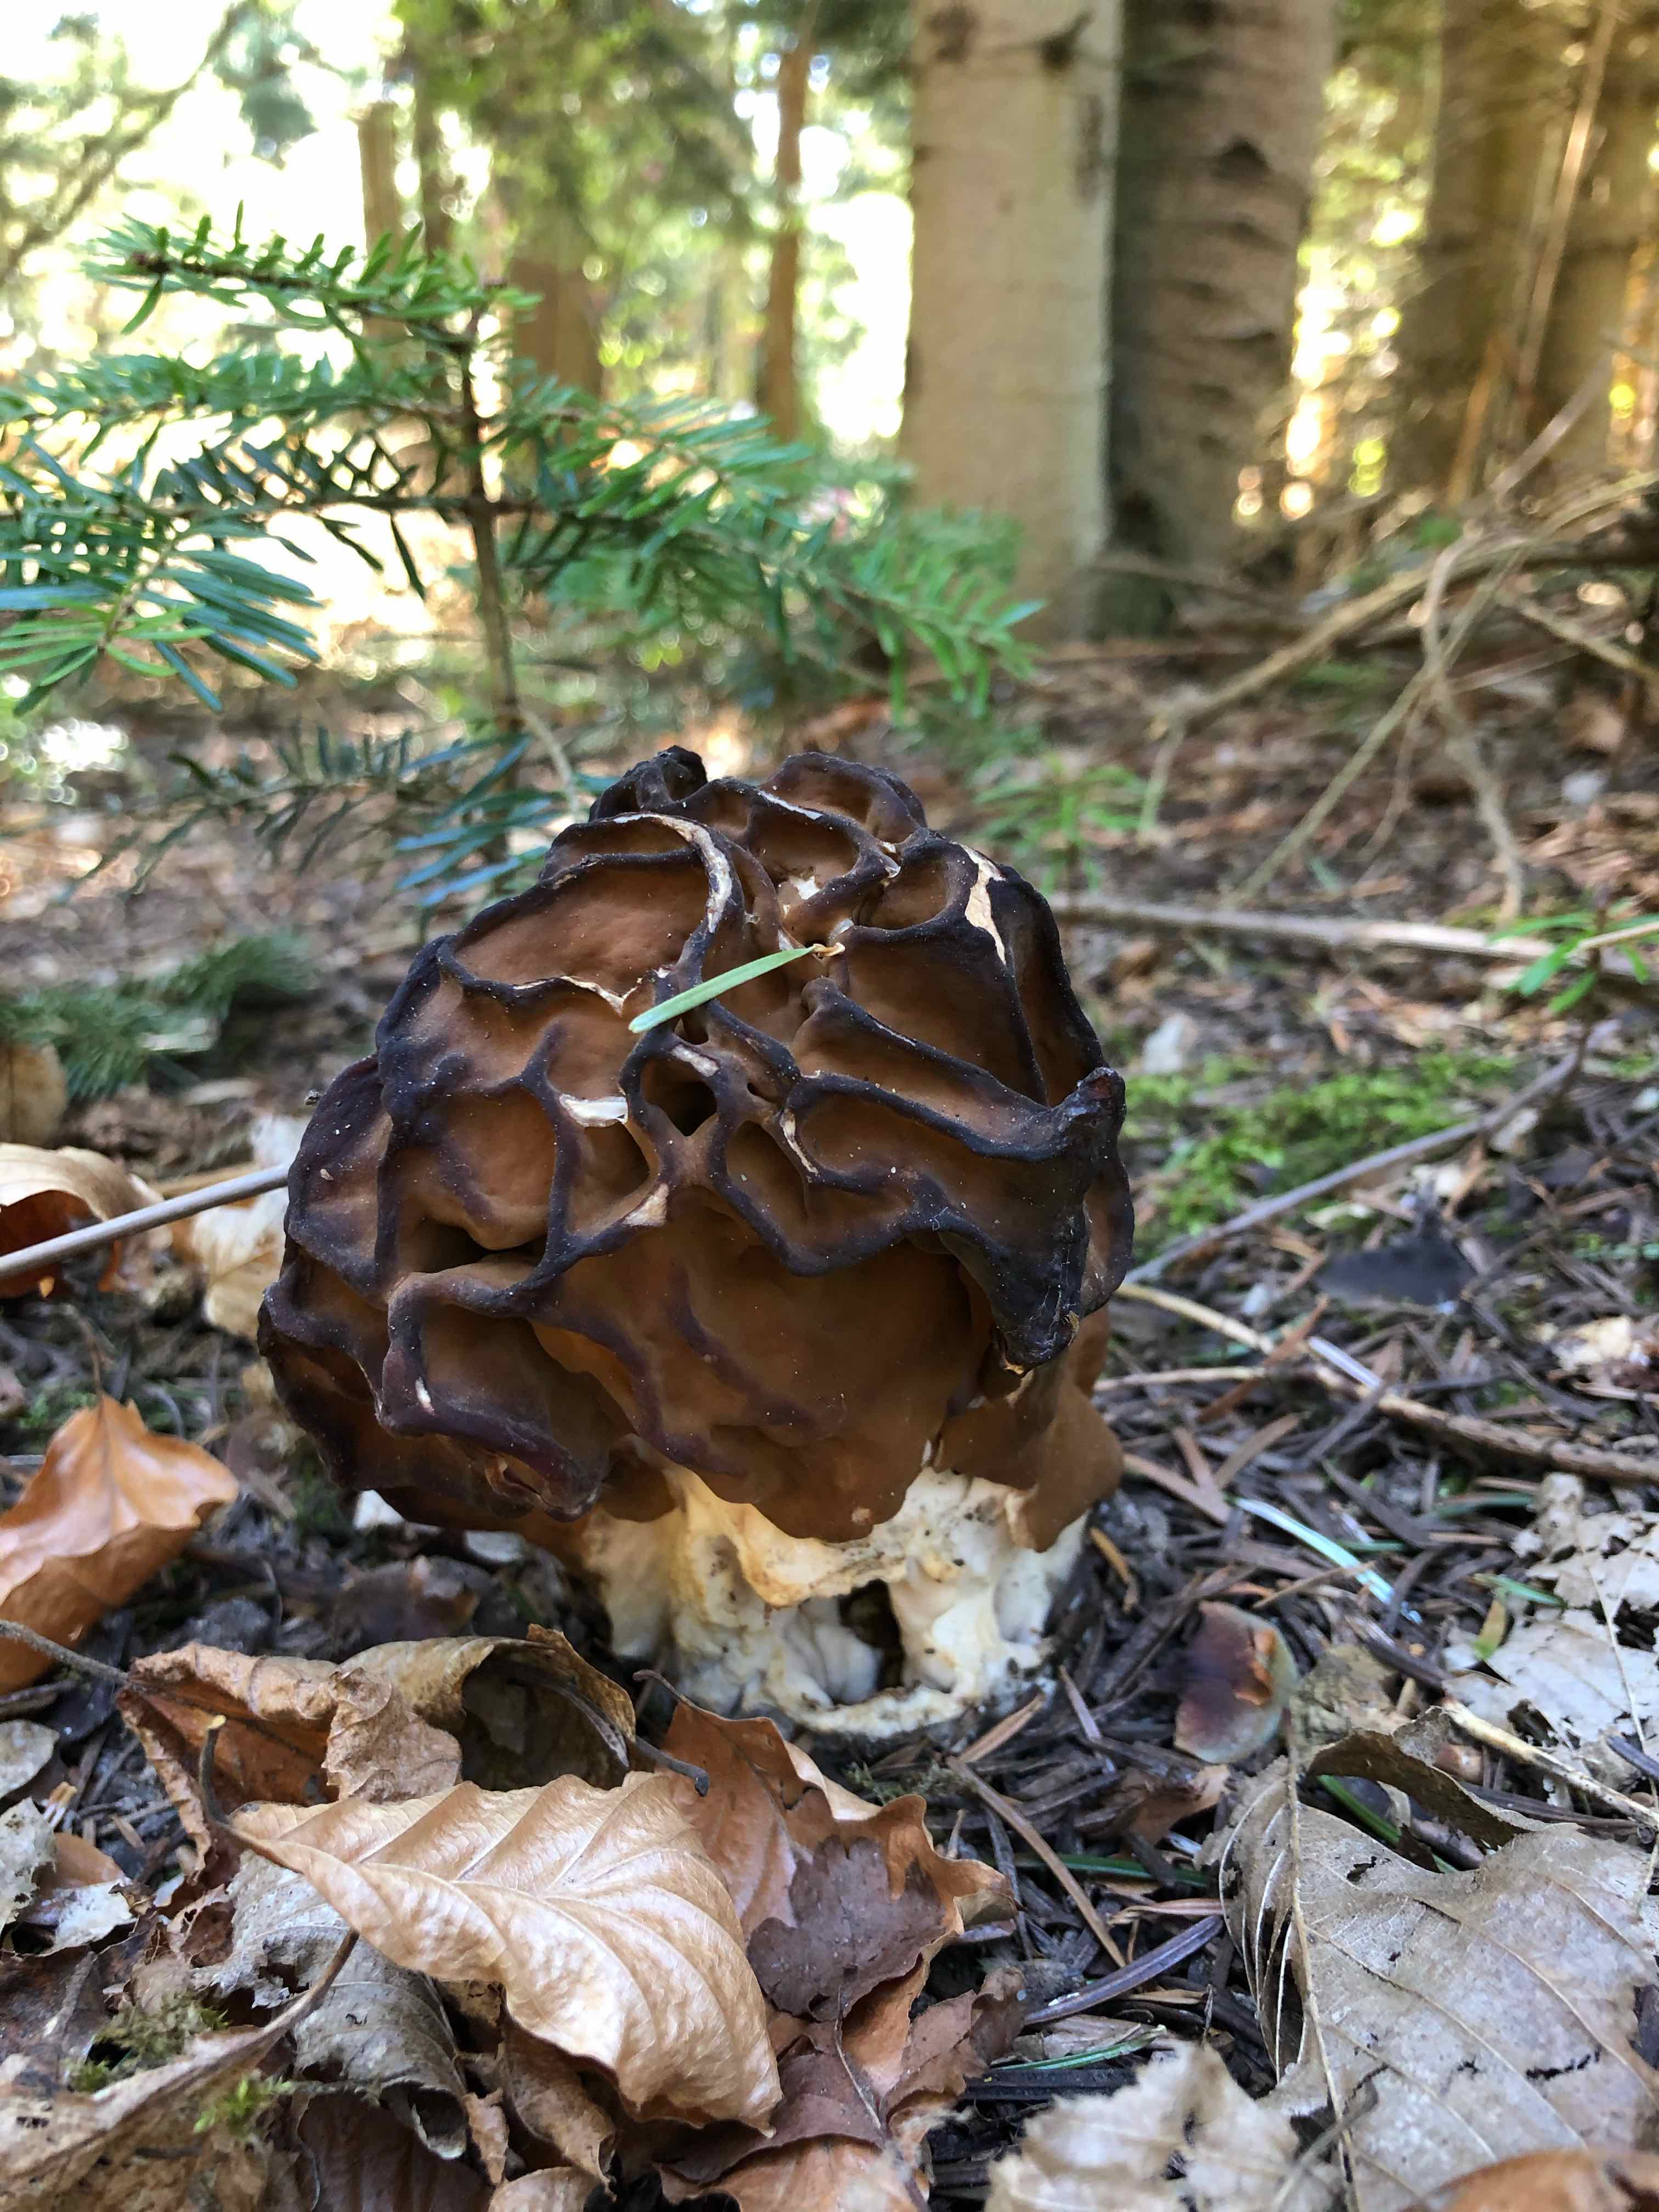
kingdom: Fungi
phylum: Ascomycota
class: Pezizomycetes
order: Pezizales
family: Discinaceae
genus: Gyromitra
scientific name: Gyromitra gigas
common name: kæmpe-stenmorkel
